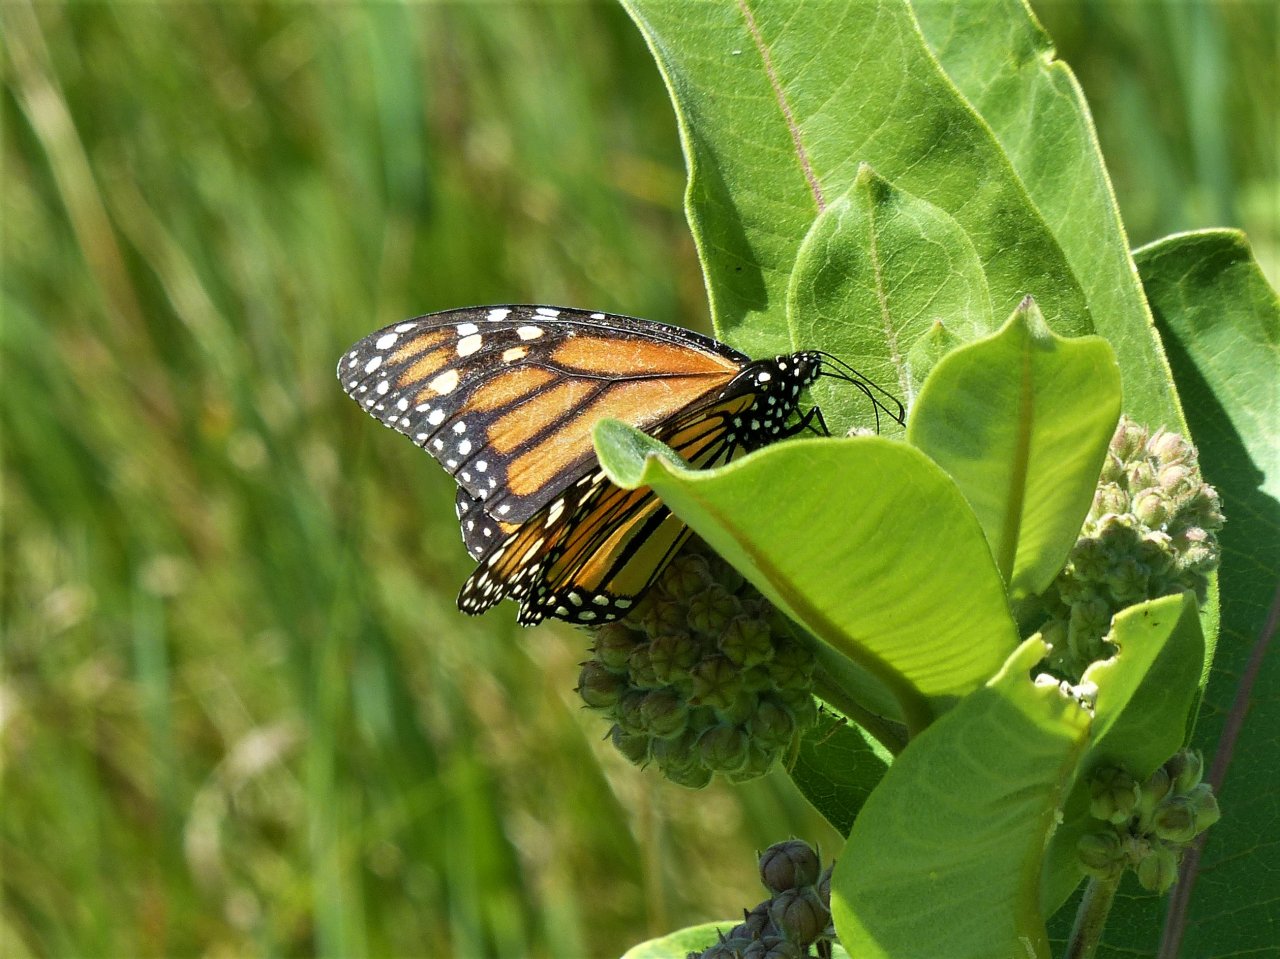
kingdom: Animalia
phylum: Arthropoda
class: Insecta
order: Lepidoptera
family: Nymphalidae
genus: Danaus
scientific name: Danaus plexippus
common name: Monarch
